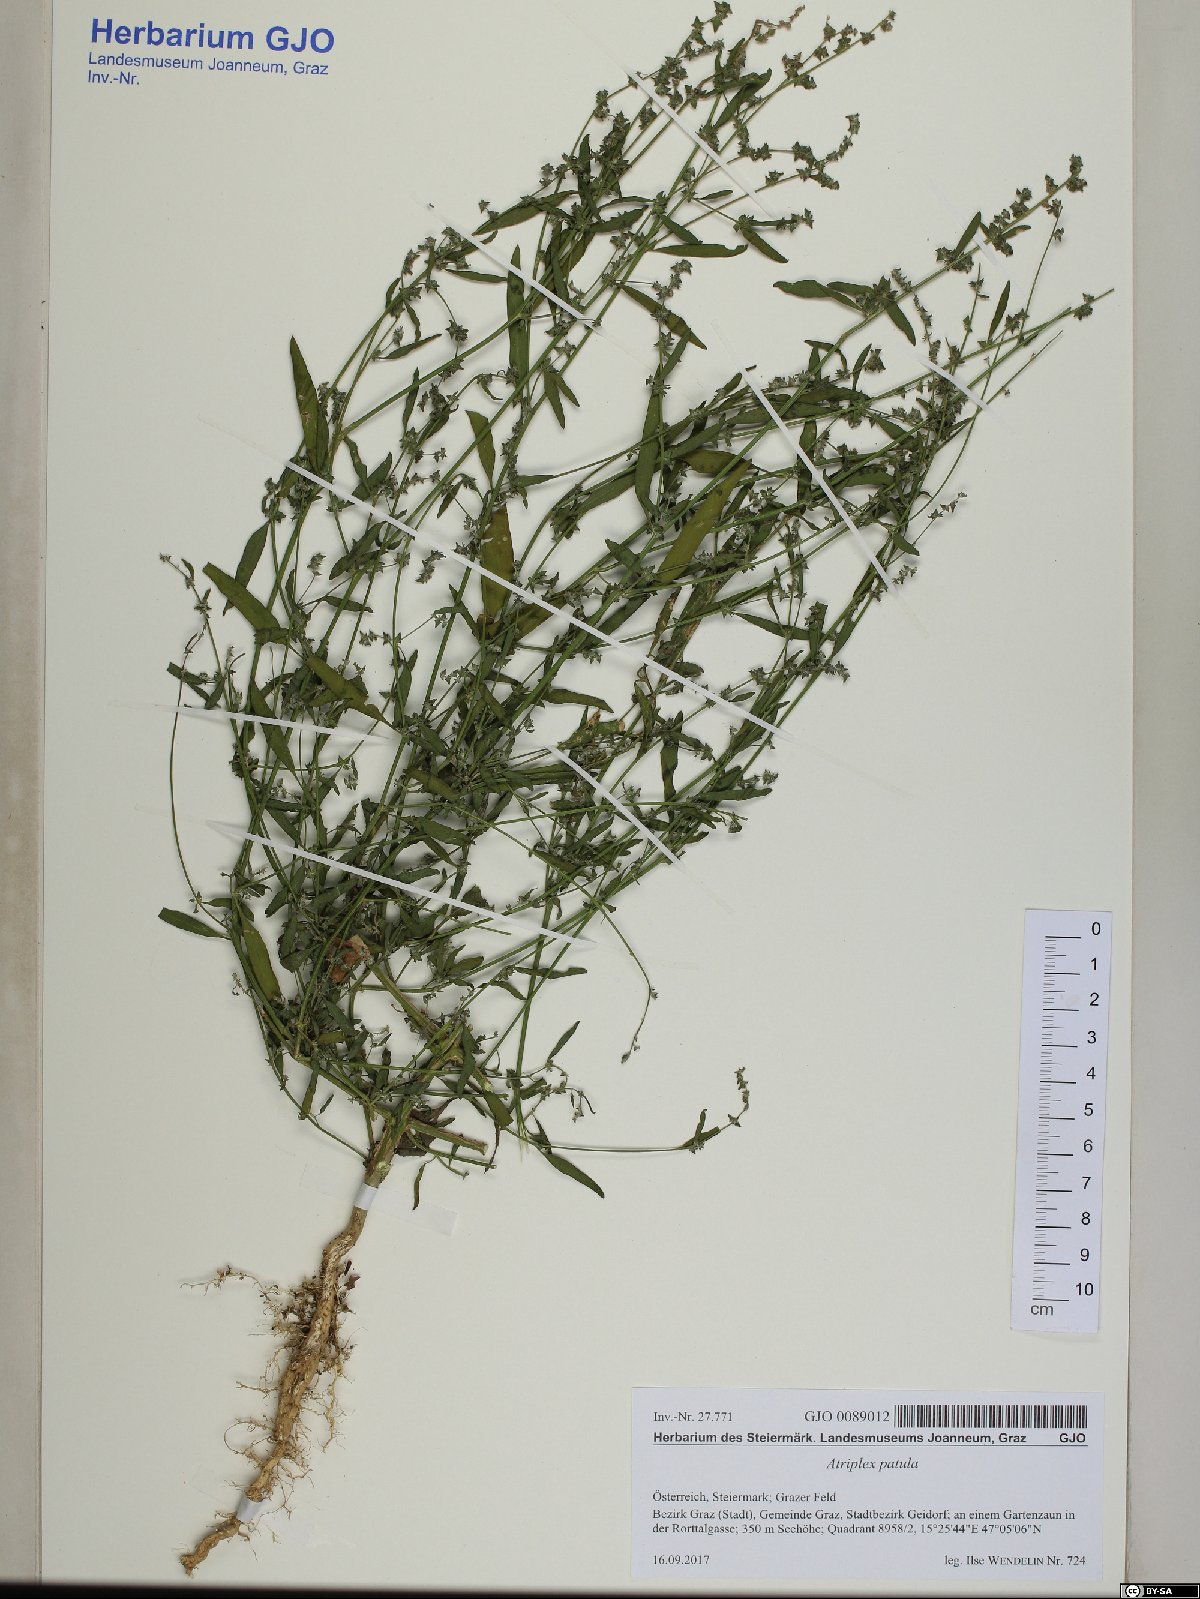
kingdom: Plantae
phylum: Tracheophyta
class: Magnoliopsida
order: Caryophyllales
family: Amaranthaceae
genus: Atriplex
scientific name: Atriplex patula
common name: Common orache
